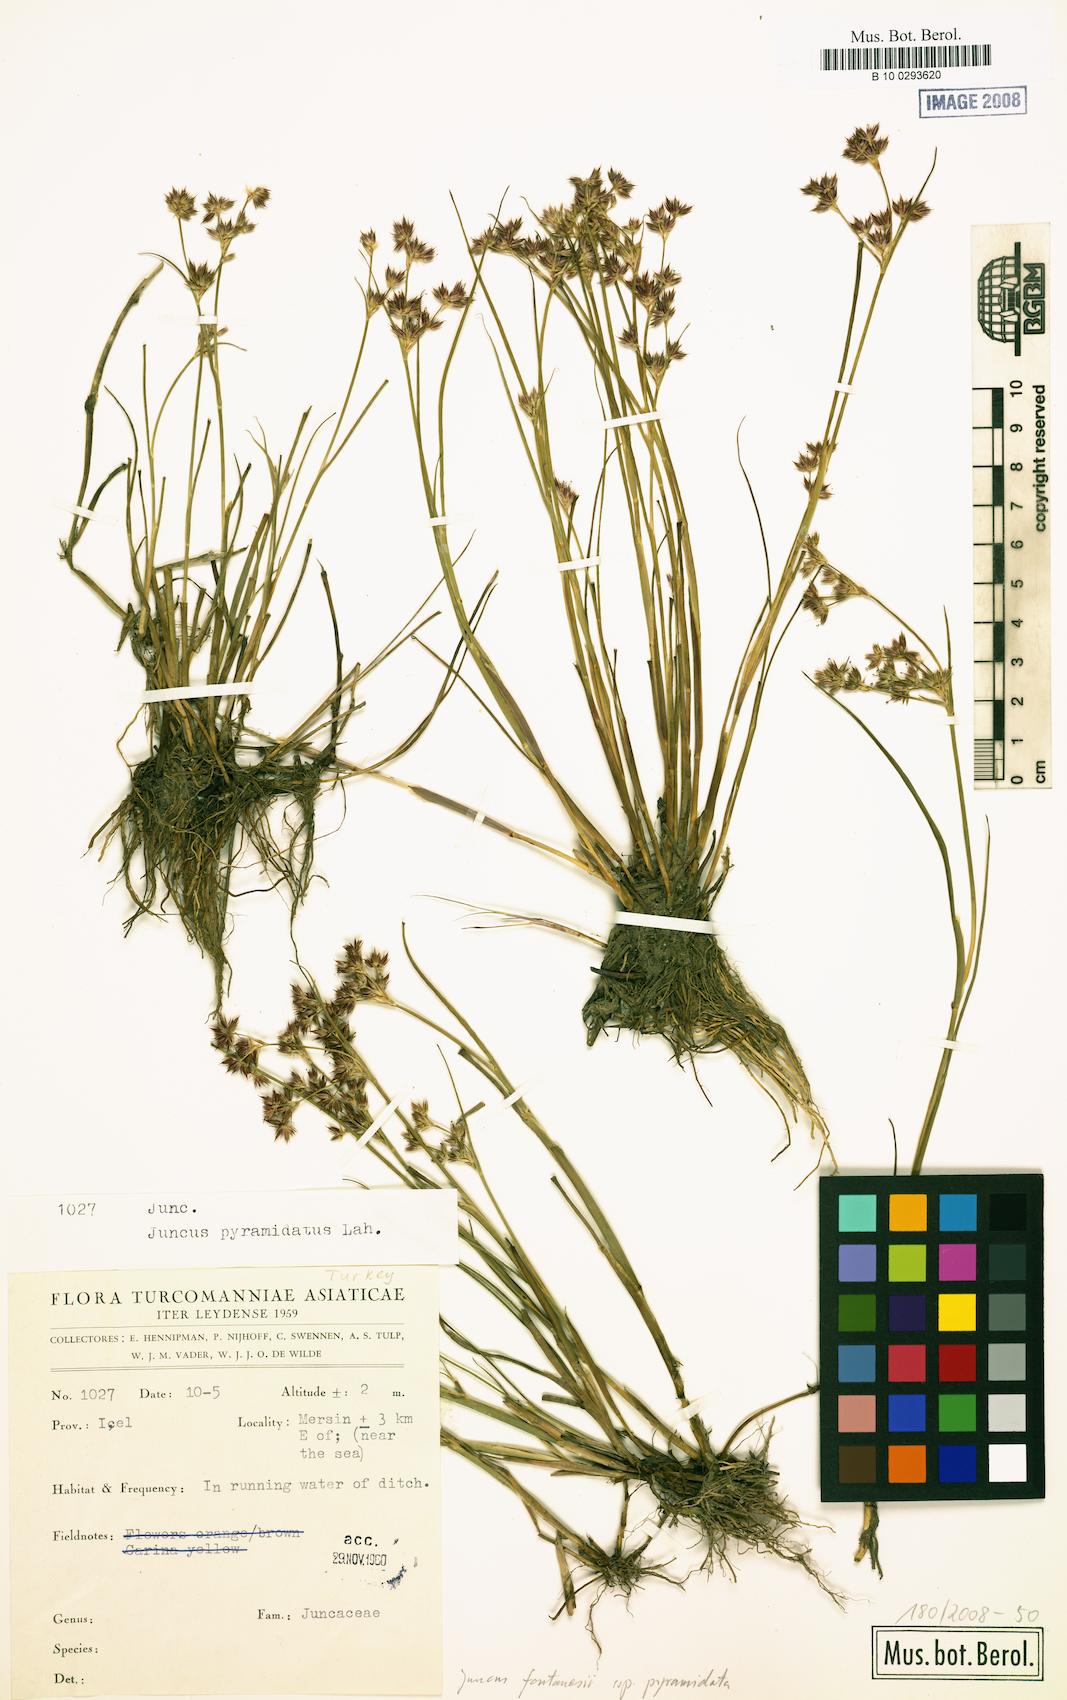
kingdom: Plantae
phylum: Tracheophyta
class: Liliopsida
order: Poales
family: Juncaceae
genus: Juncus
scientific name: Juncus fontanesii
